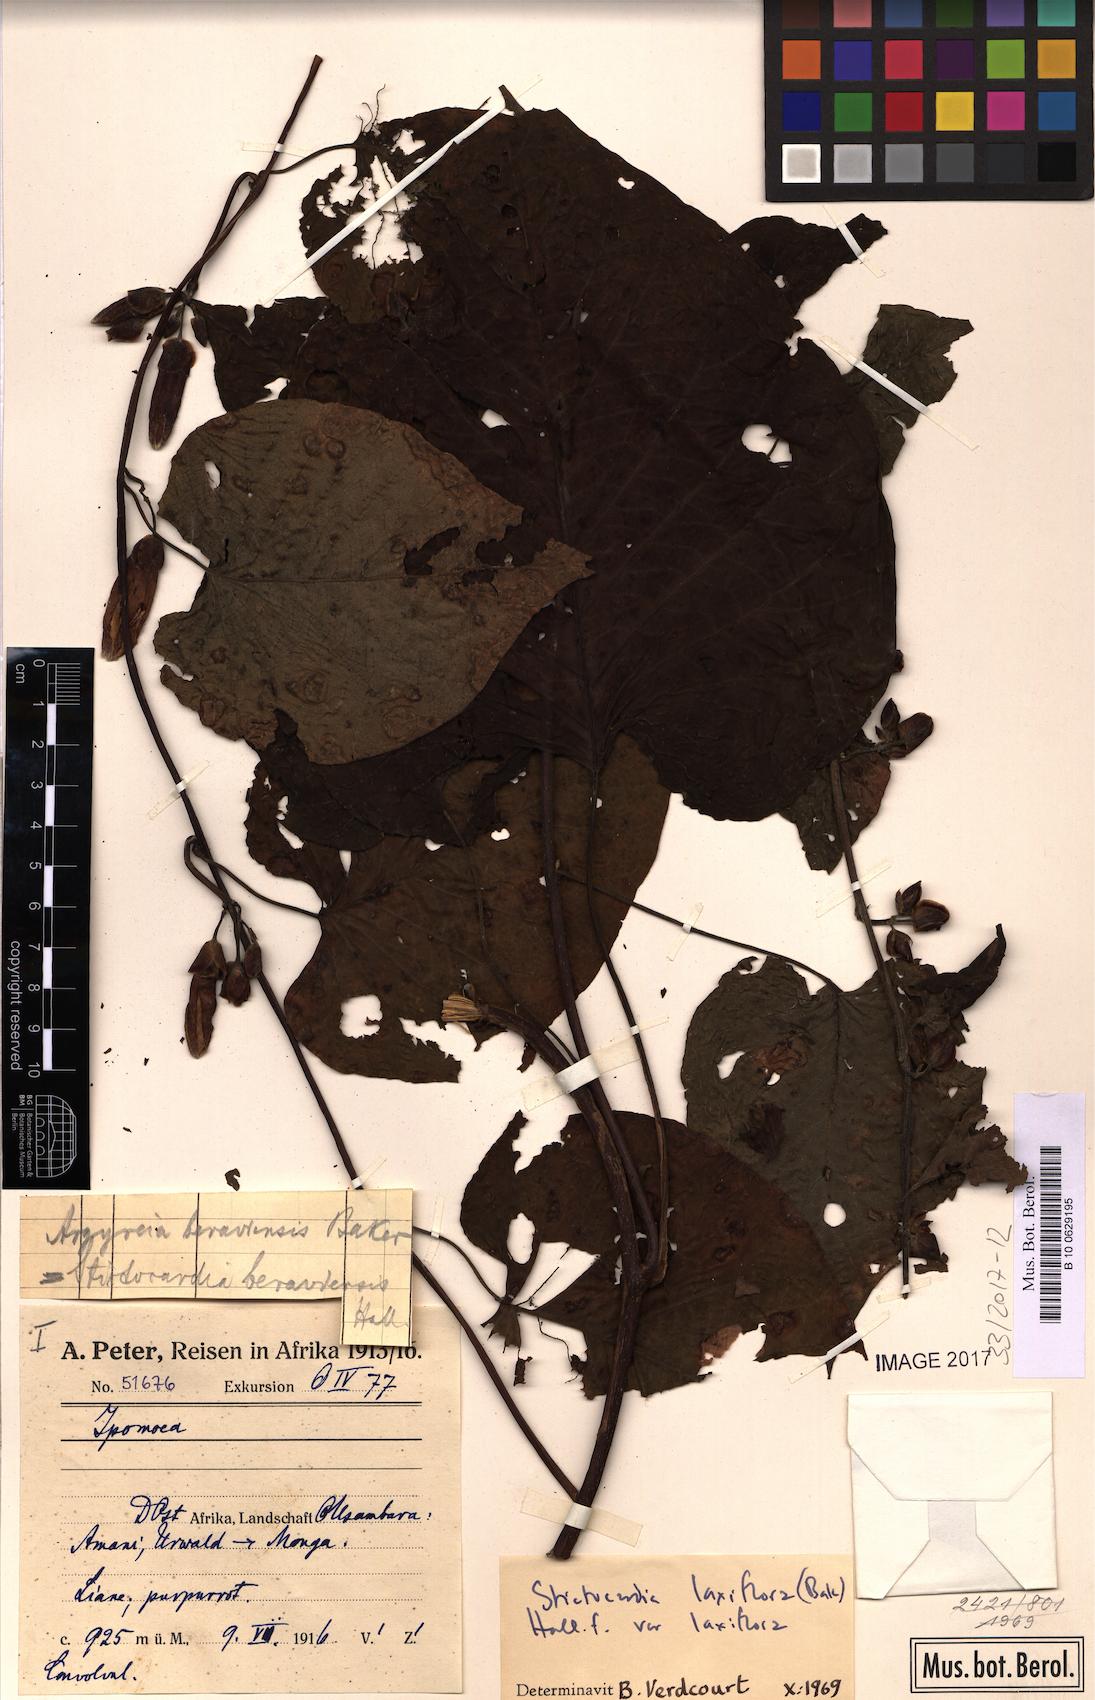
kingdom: Plantae
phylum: Tracheophyta
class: Magnoliopsida
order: Solanales
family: Convolvulaceae
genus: Stictocardia
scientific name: Stictocardia laxiflora
